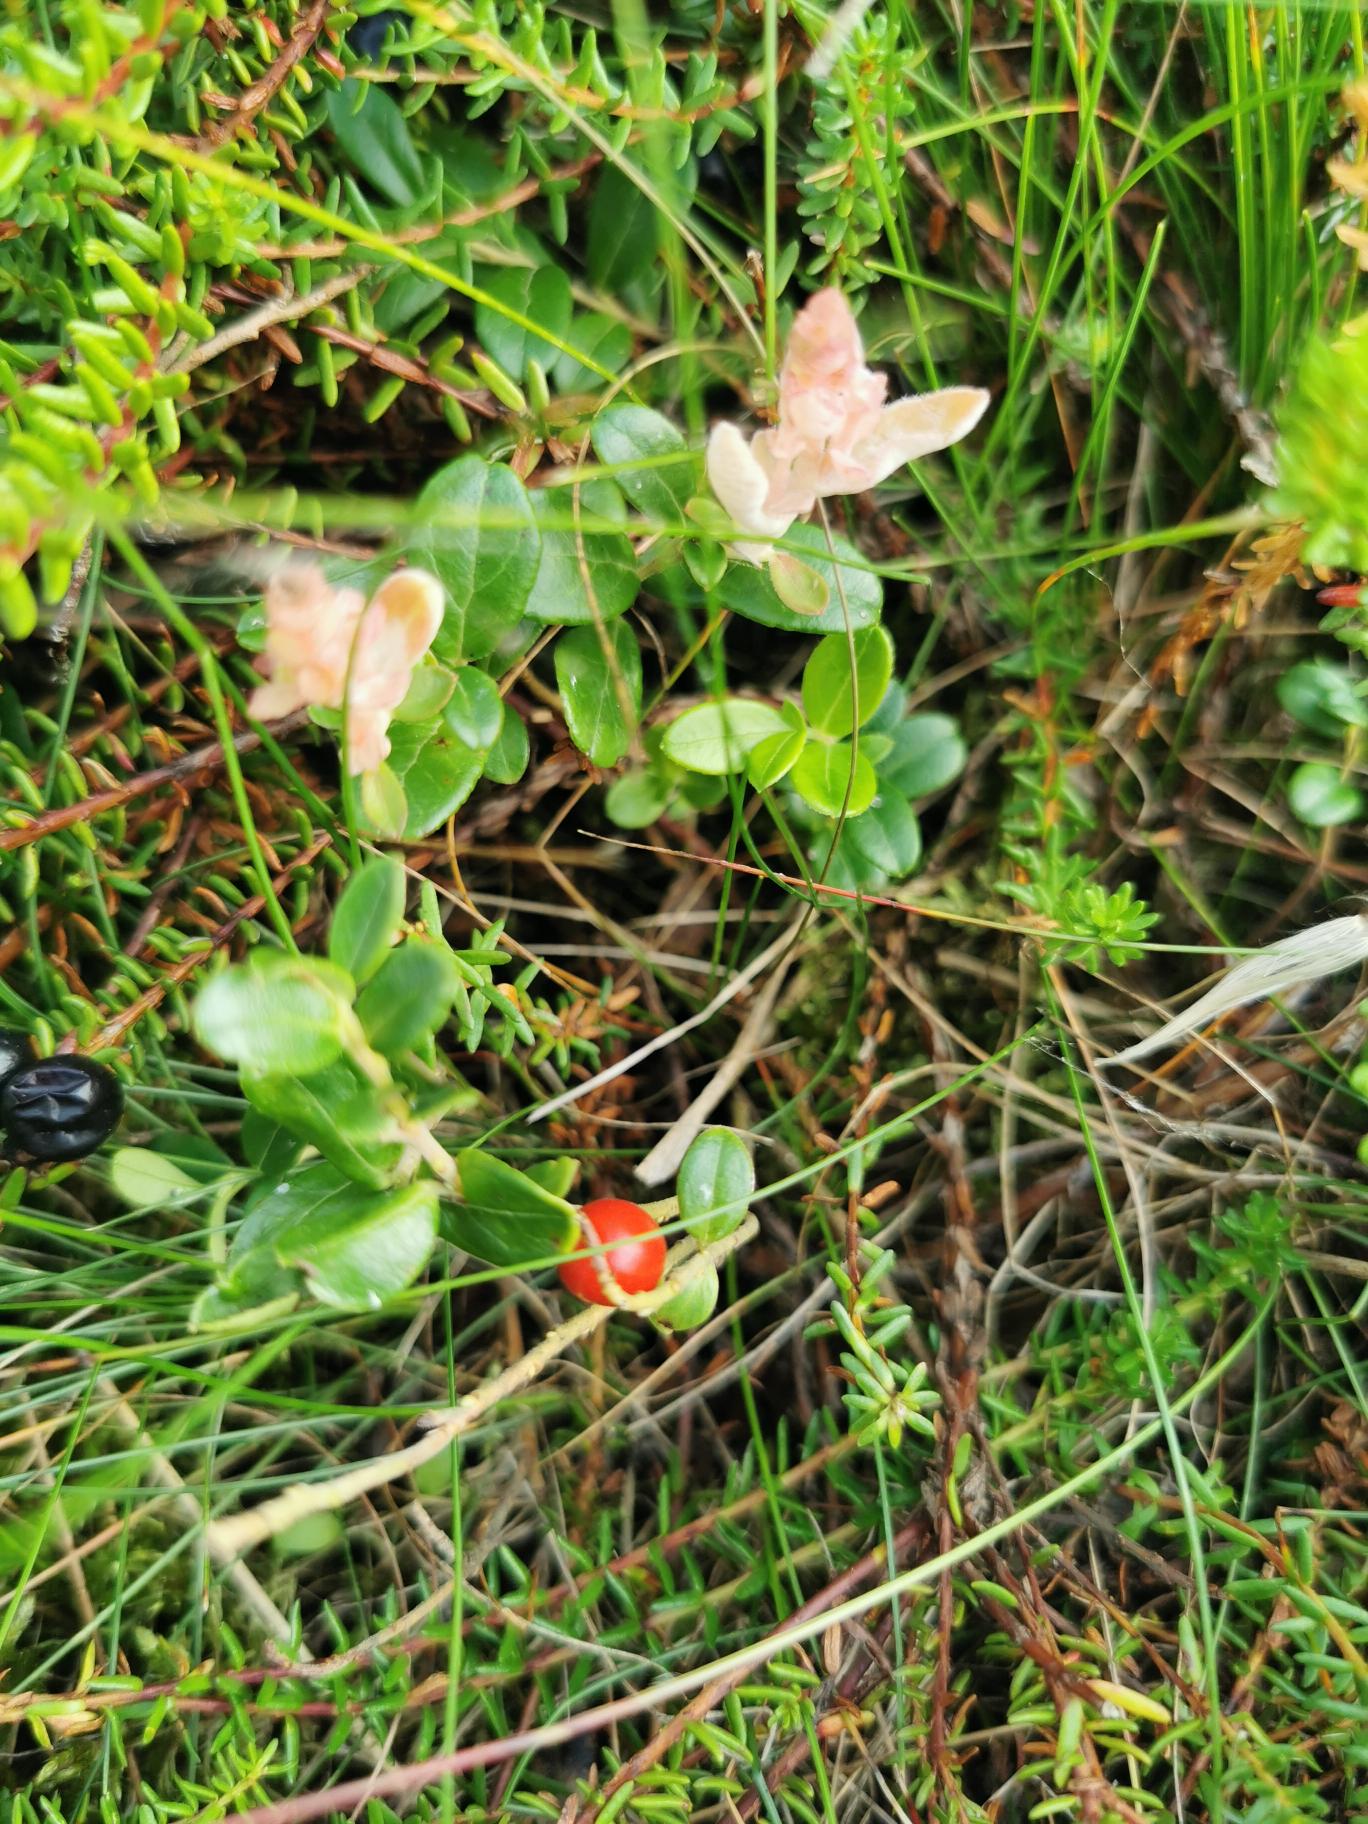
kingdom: Plantae
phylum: Tracheophyta
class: Magnoliopsida
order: Ericales
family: Ericaceae
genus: Vaccinium
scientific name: Vaccinium vitis-idaea
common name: Tyttebær
